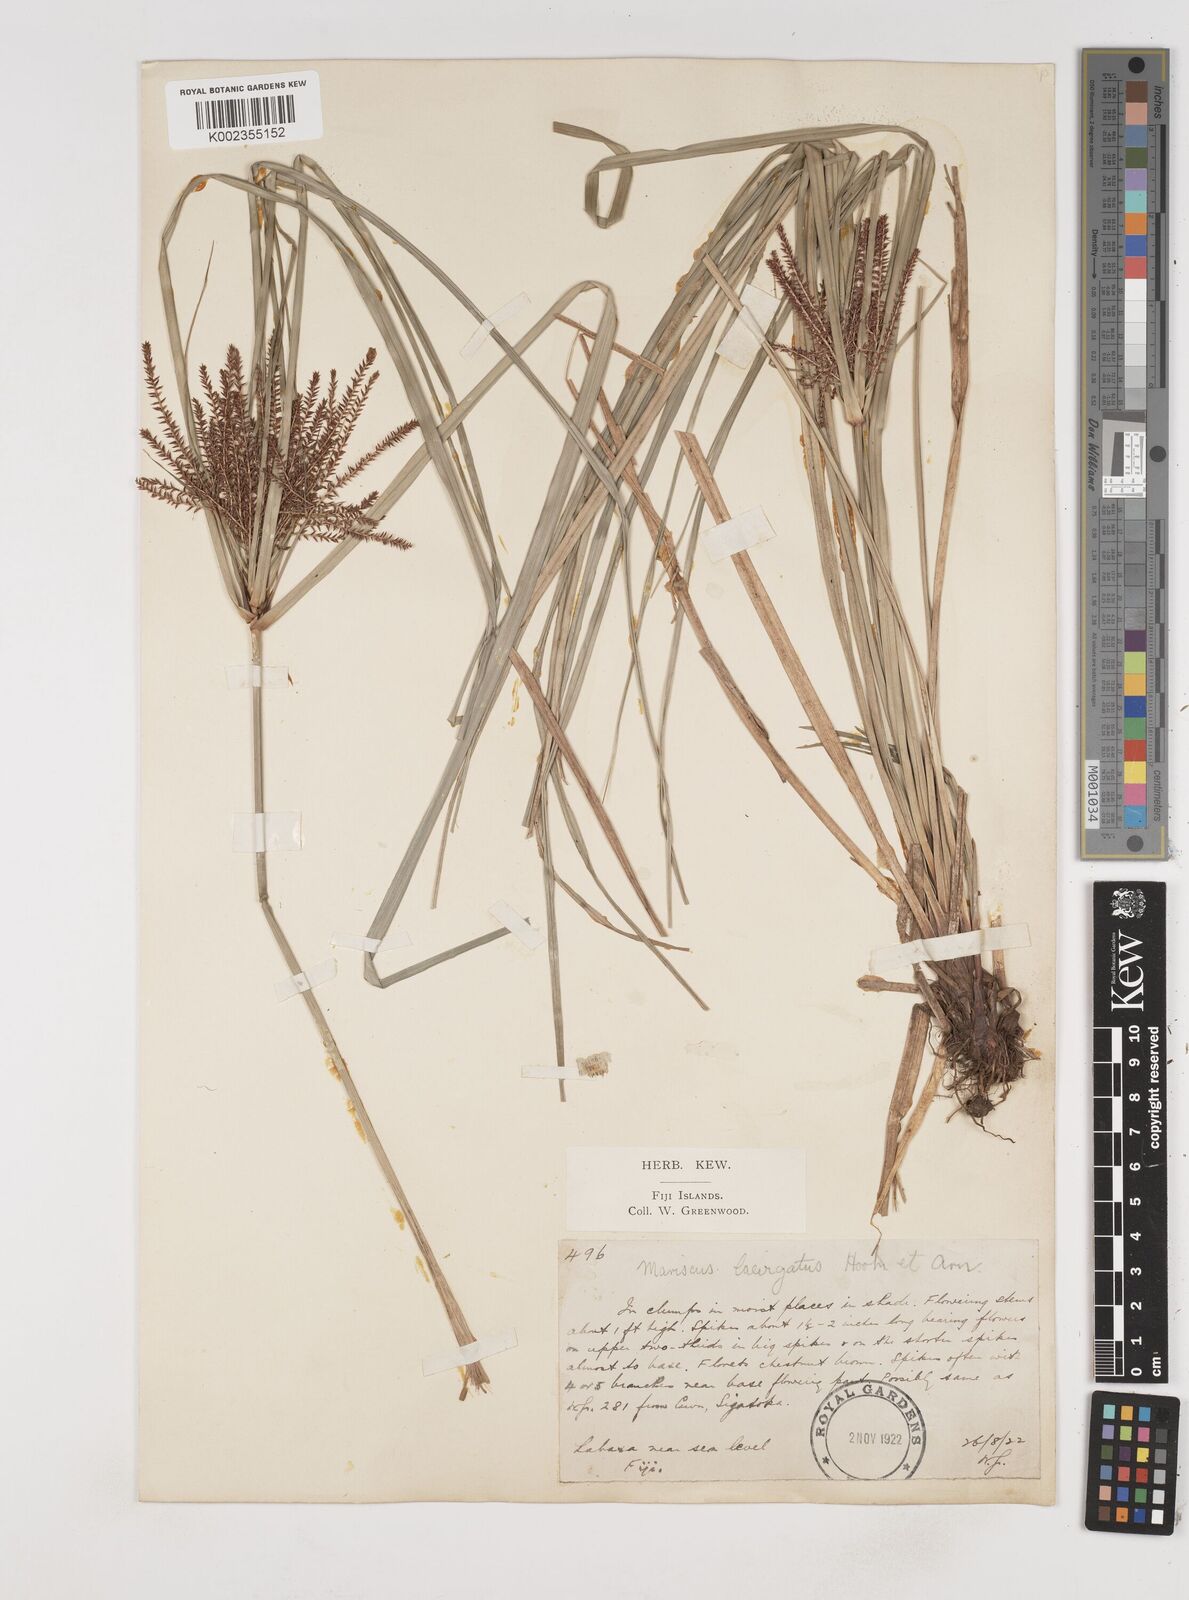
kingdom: Plantae
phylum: Tracheophyta
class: Liliopsida
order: Poales
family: Cyperaceae
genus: Cyperus
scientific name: Cyperus seemannianus
